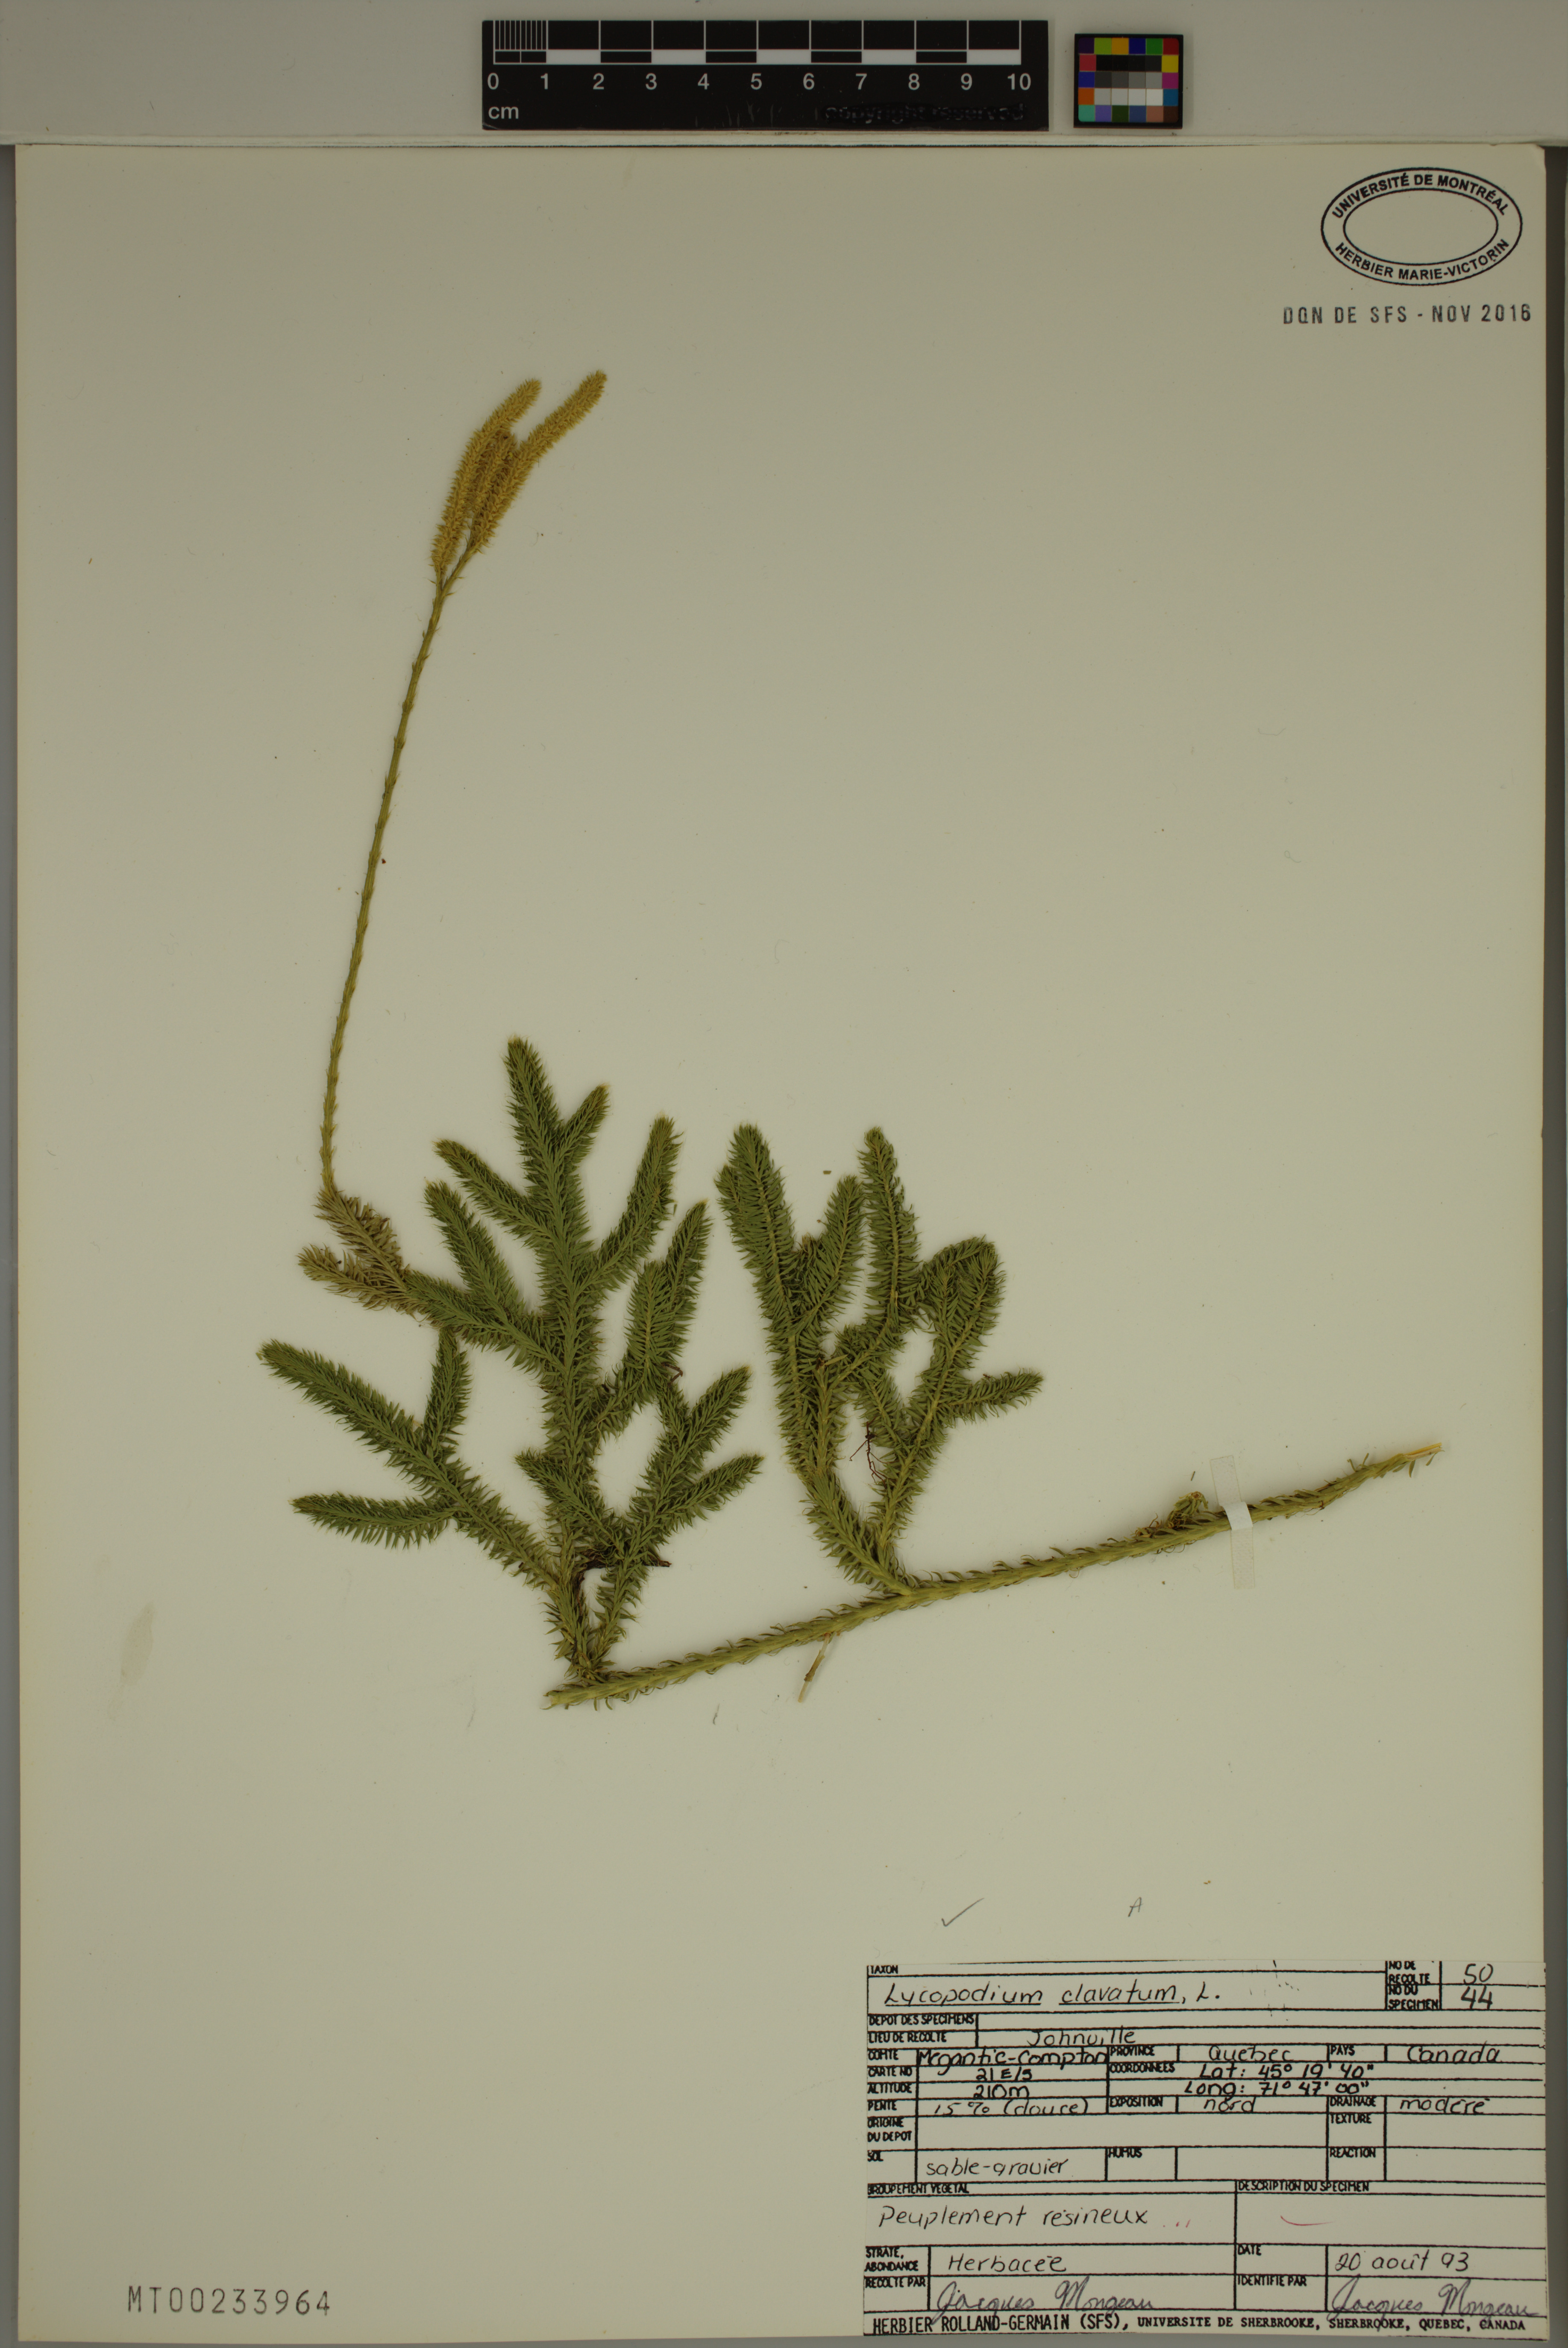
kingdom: Plantae
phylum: Tracheophyta
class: Lycopodiopsida
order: Lycopodiales
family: Lycopodiaceae
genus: Lycopodium
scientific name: Lycopodium clavatum
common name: Stag's-horn clubmoss
